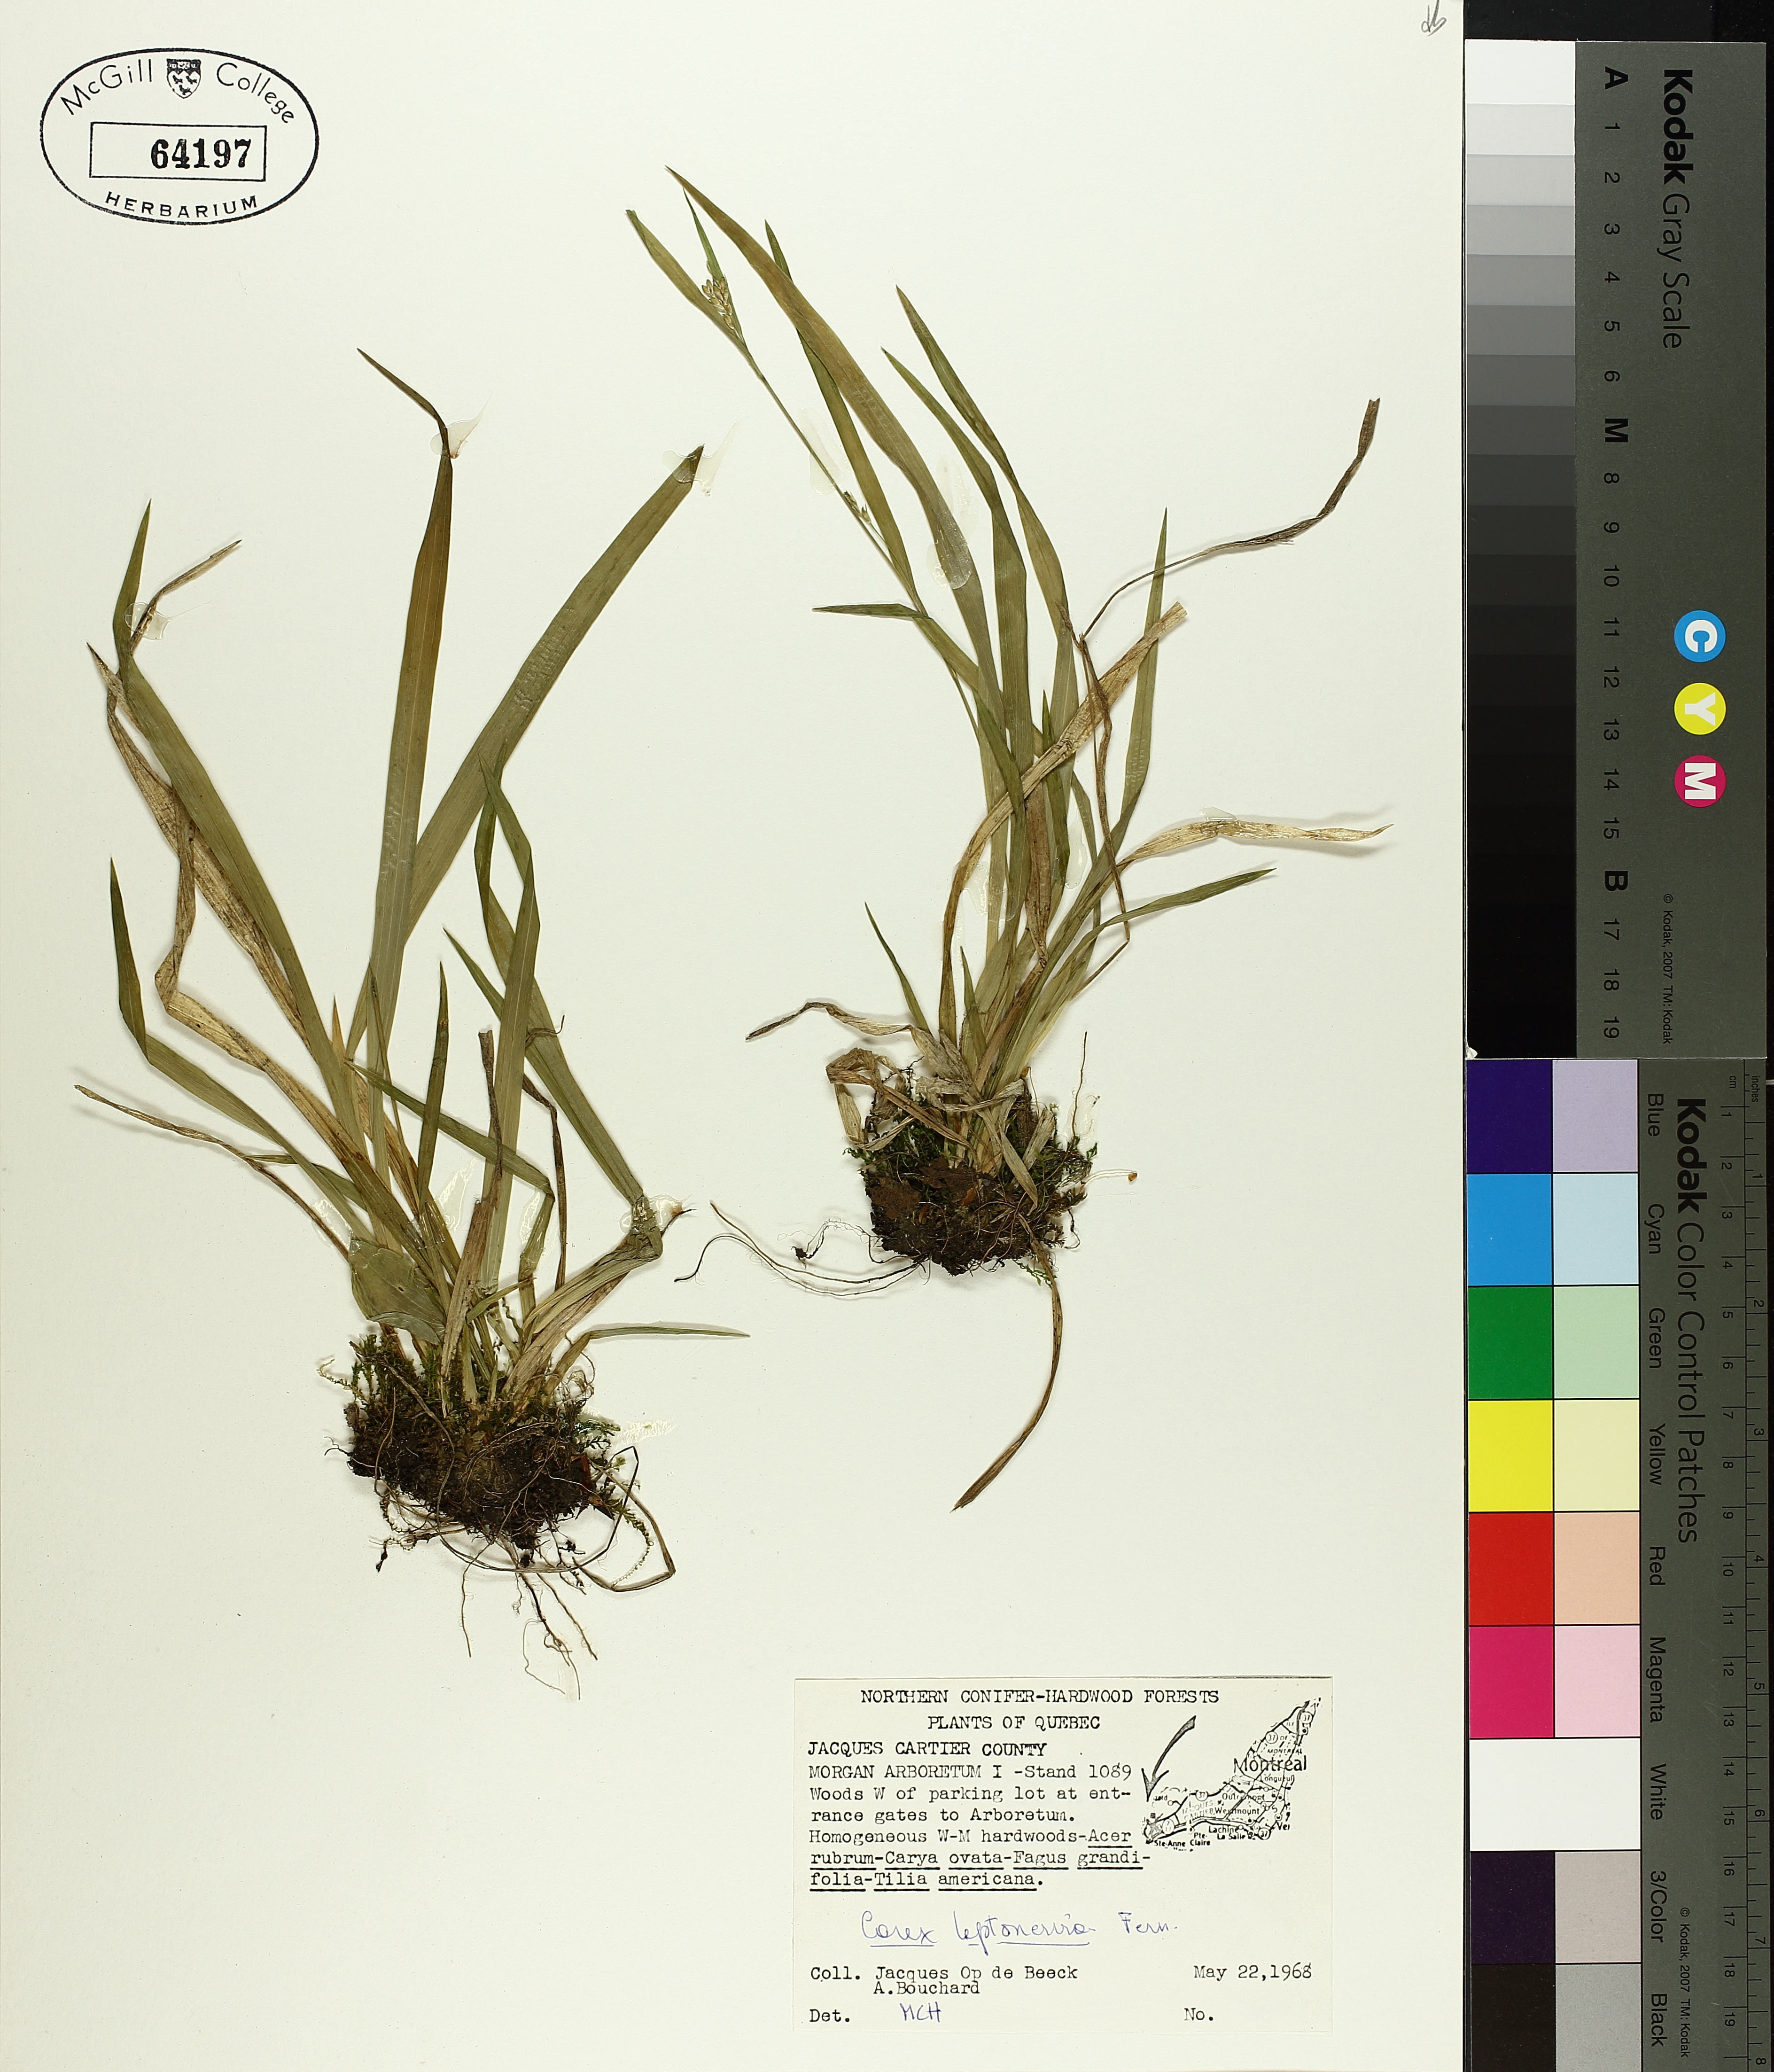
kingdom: Plantae
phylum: Tracheophyta
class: Liliopsida
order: Poales
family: Cyperaceae
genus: Carex
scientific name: Carex leptonervia
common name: Few-nerved wood sedge
